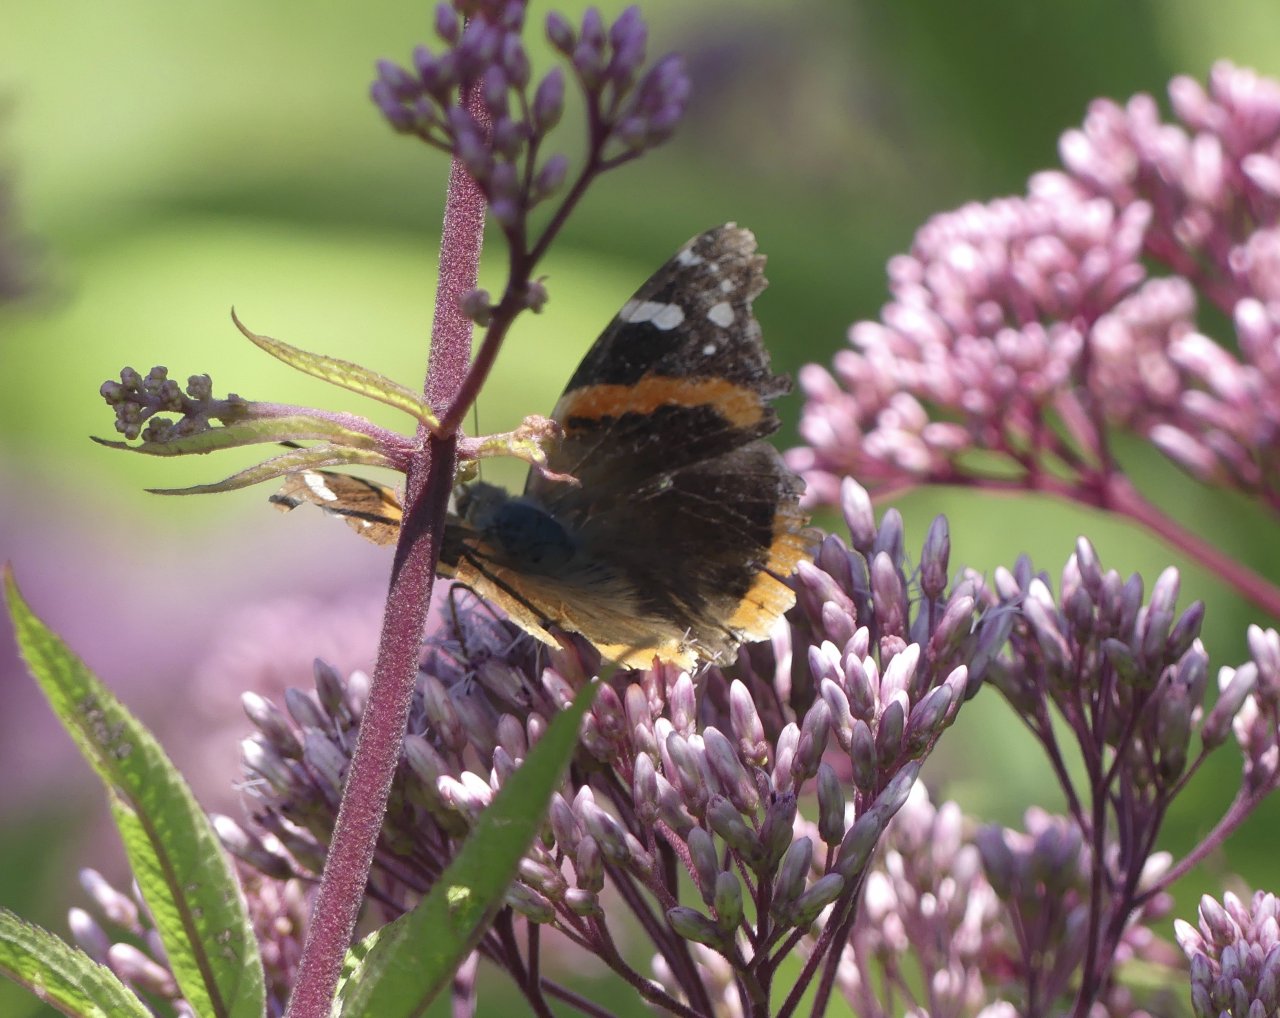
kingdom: Animalia
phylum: Arthropoda
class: Insecta
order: Lepidoptera
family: Nymphalidae
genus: Vanessa
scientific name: Vanessa atalanta
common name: Red Admiral
